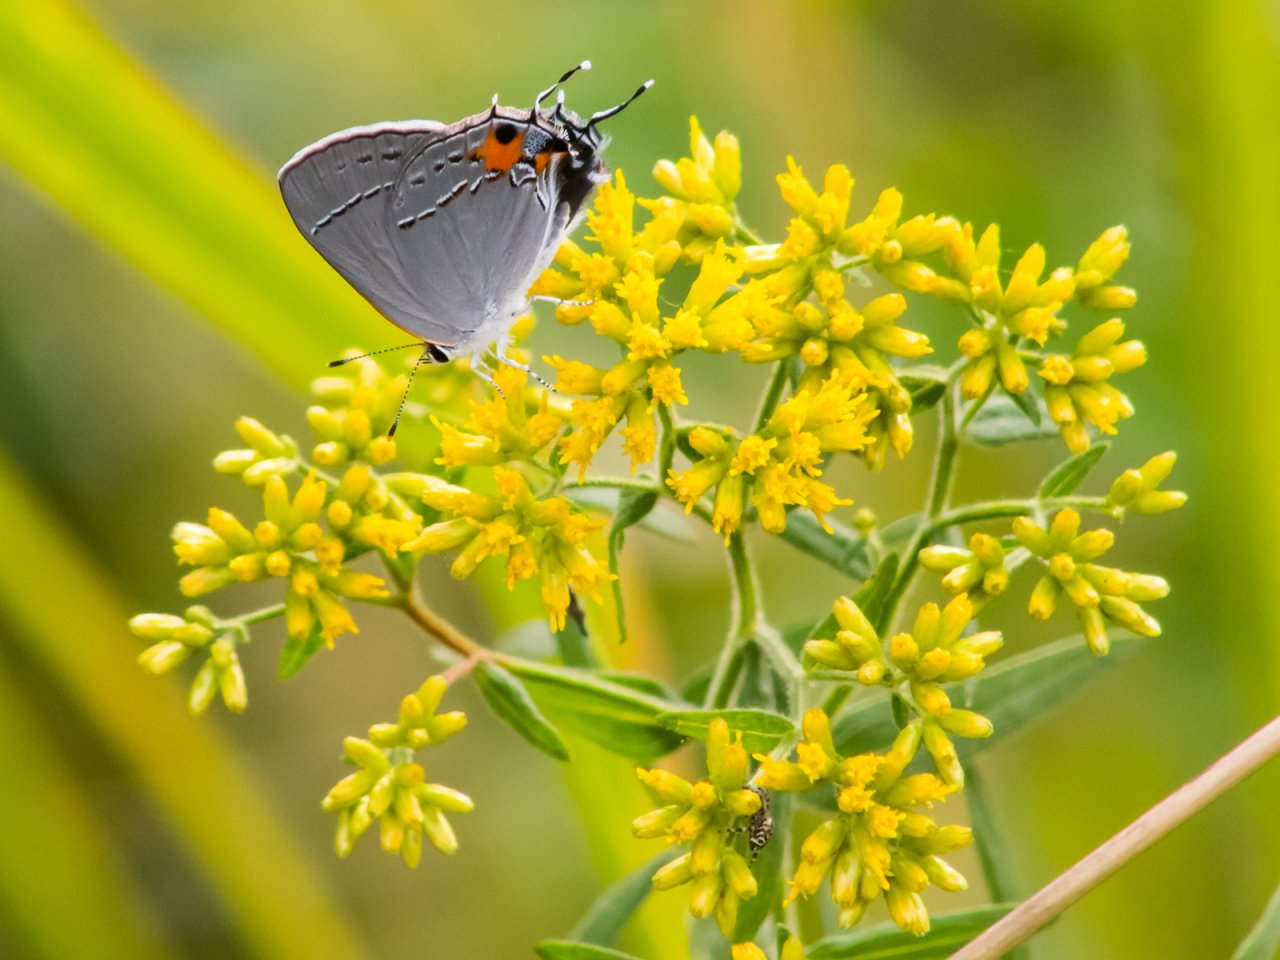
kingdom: Animalia
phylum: Arthropoda
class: Insecta
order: Lepidoptera
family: Lycaenidae
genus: Strymon
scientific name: Strymon melinus
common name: Gray Hairstreak
